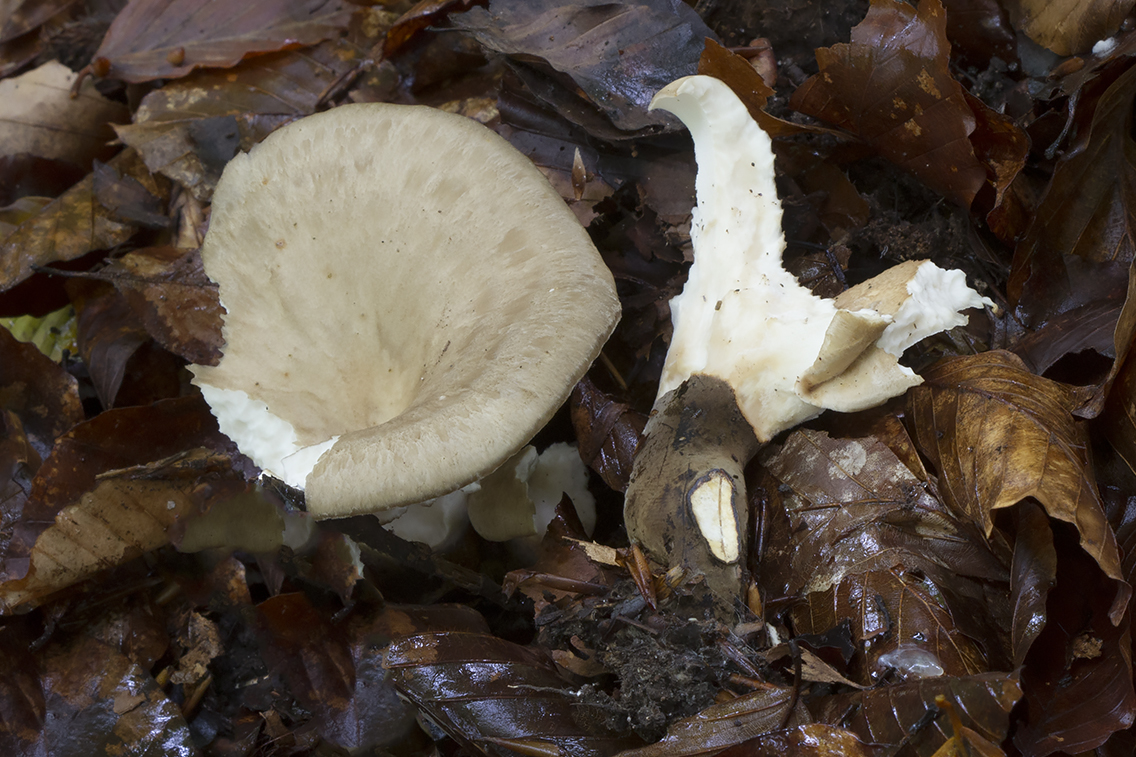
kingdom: Fungi
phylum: Basidiomycota
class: Agaricomycetes
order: Polyporales
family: Polyporaceae
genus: Picipes
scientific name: Picipes melanopus
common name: sortfodet stilkporesvamp
